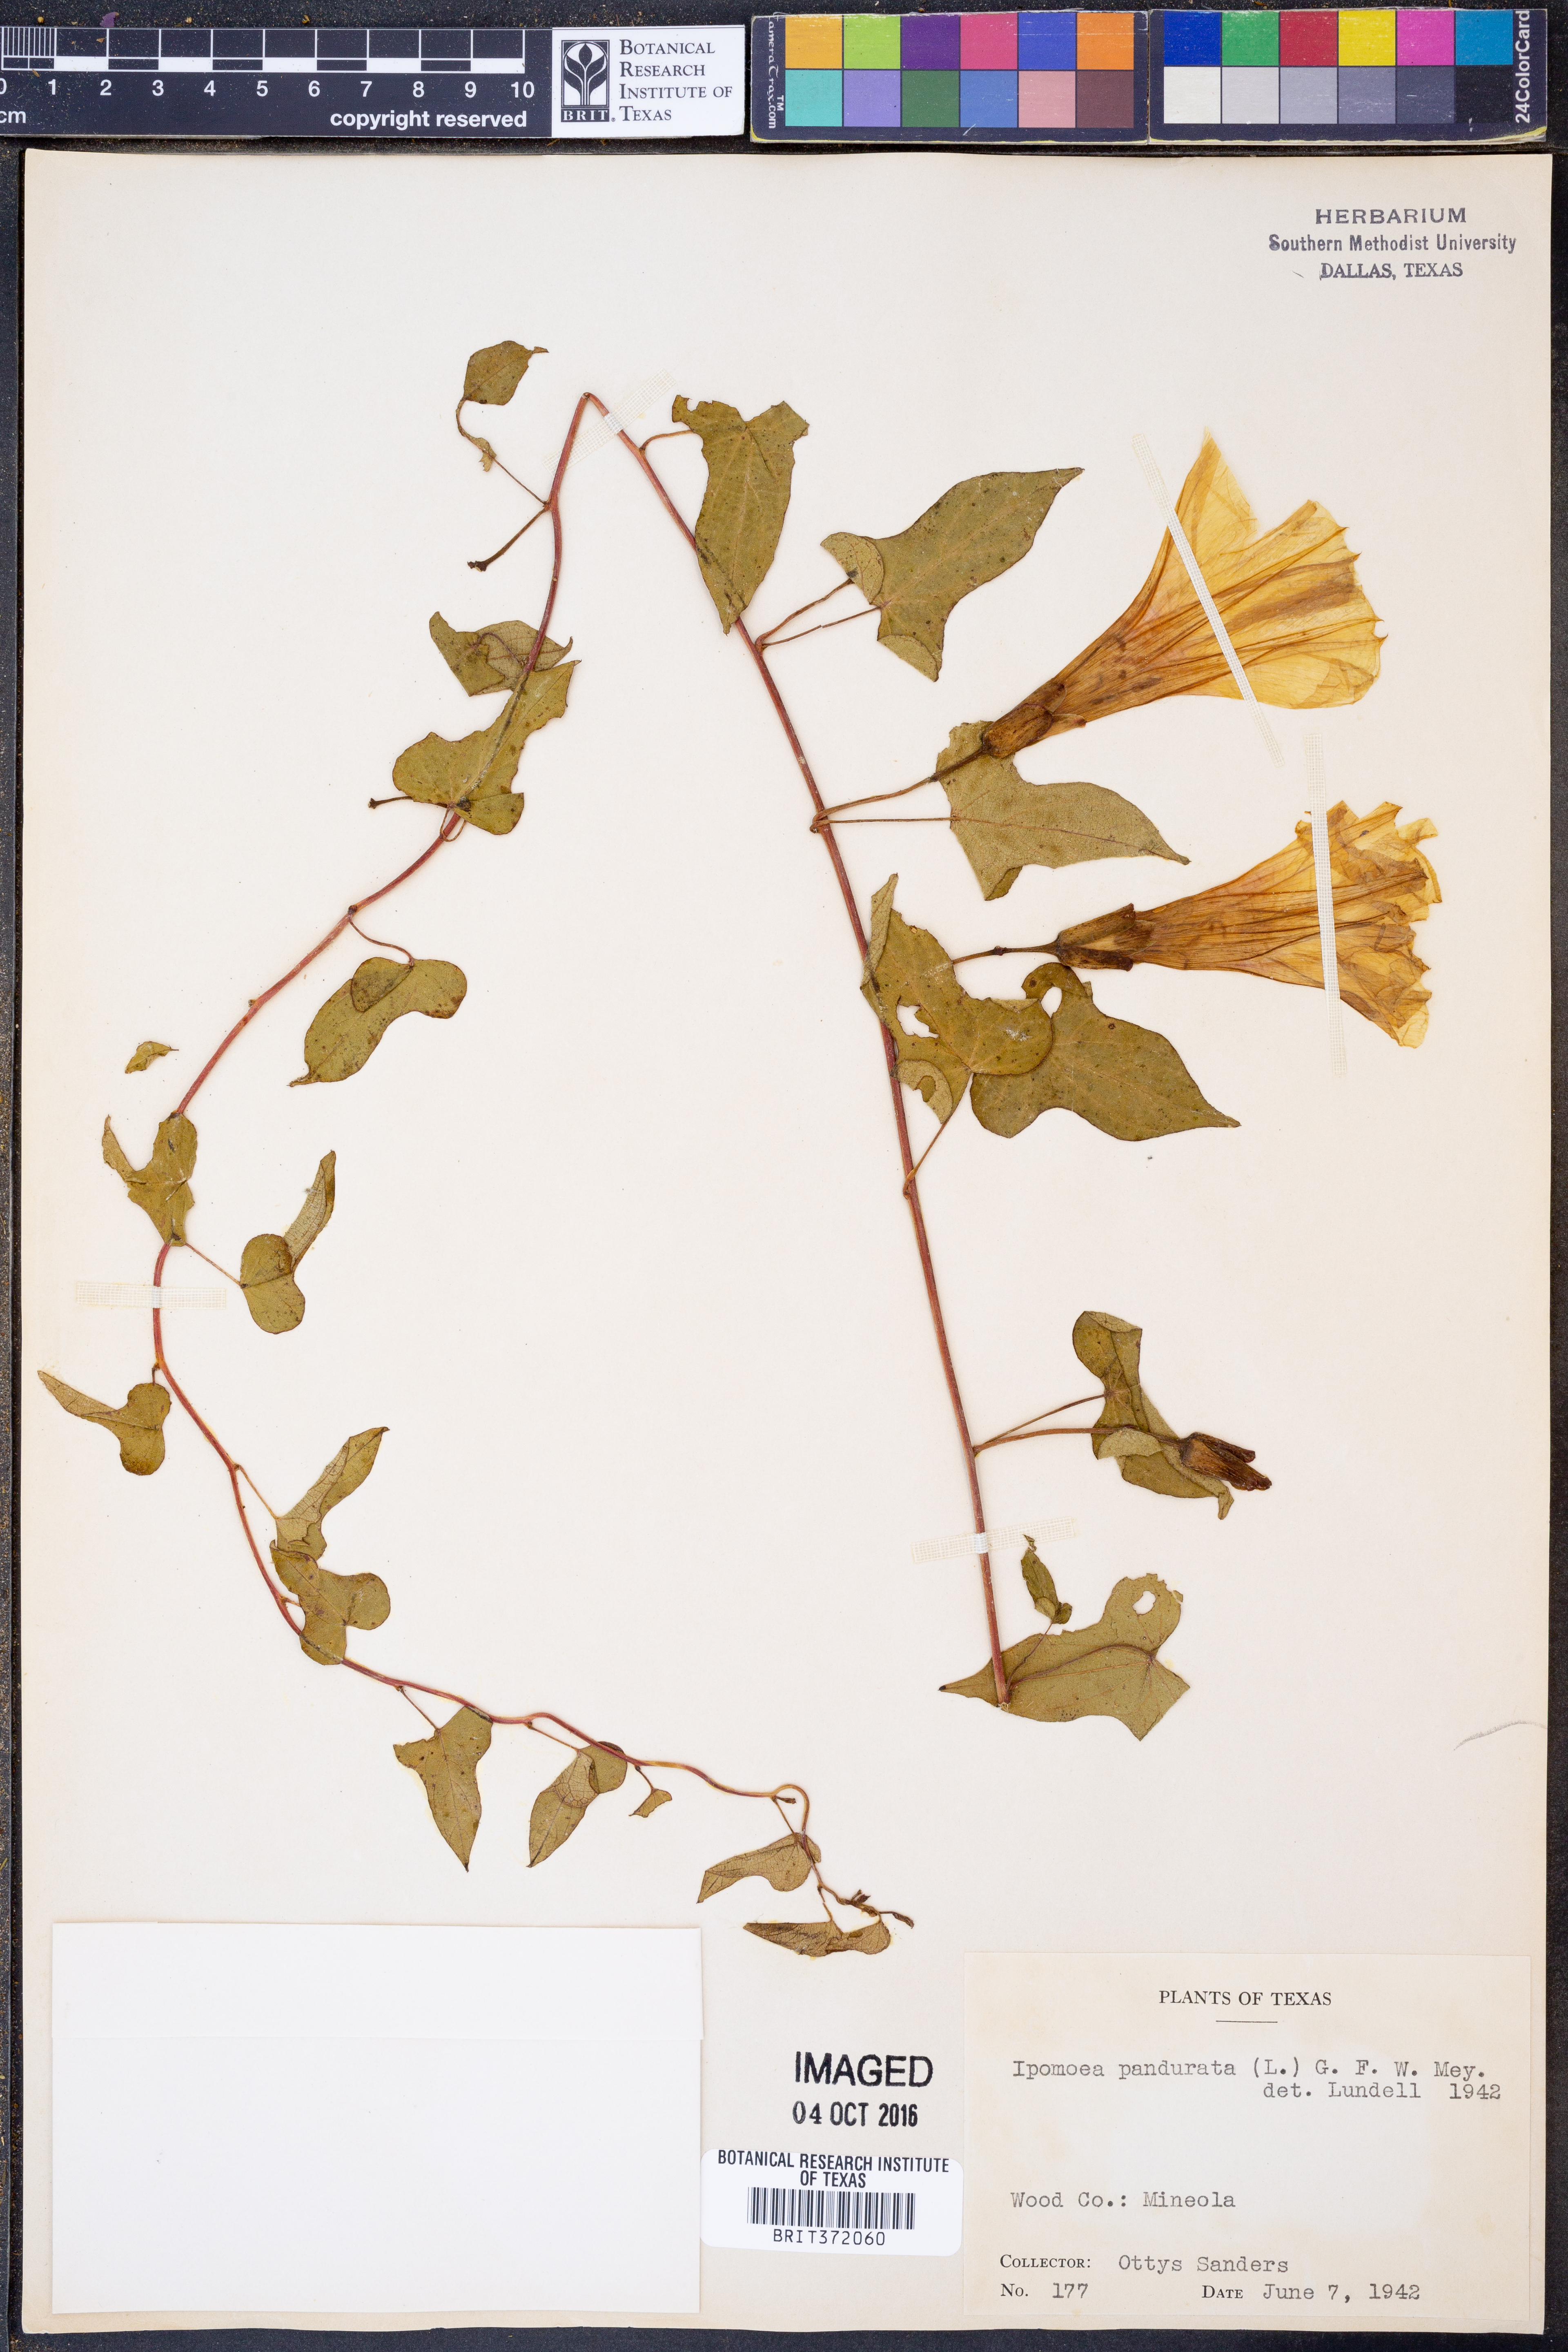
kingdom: Plantae
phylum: Tracheophyta
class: Magnoliopsida
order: Solanales
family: Convolvulaceae
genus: Ipomoea
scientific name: Ipomoea pandurata
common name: Man-of-the-earth
